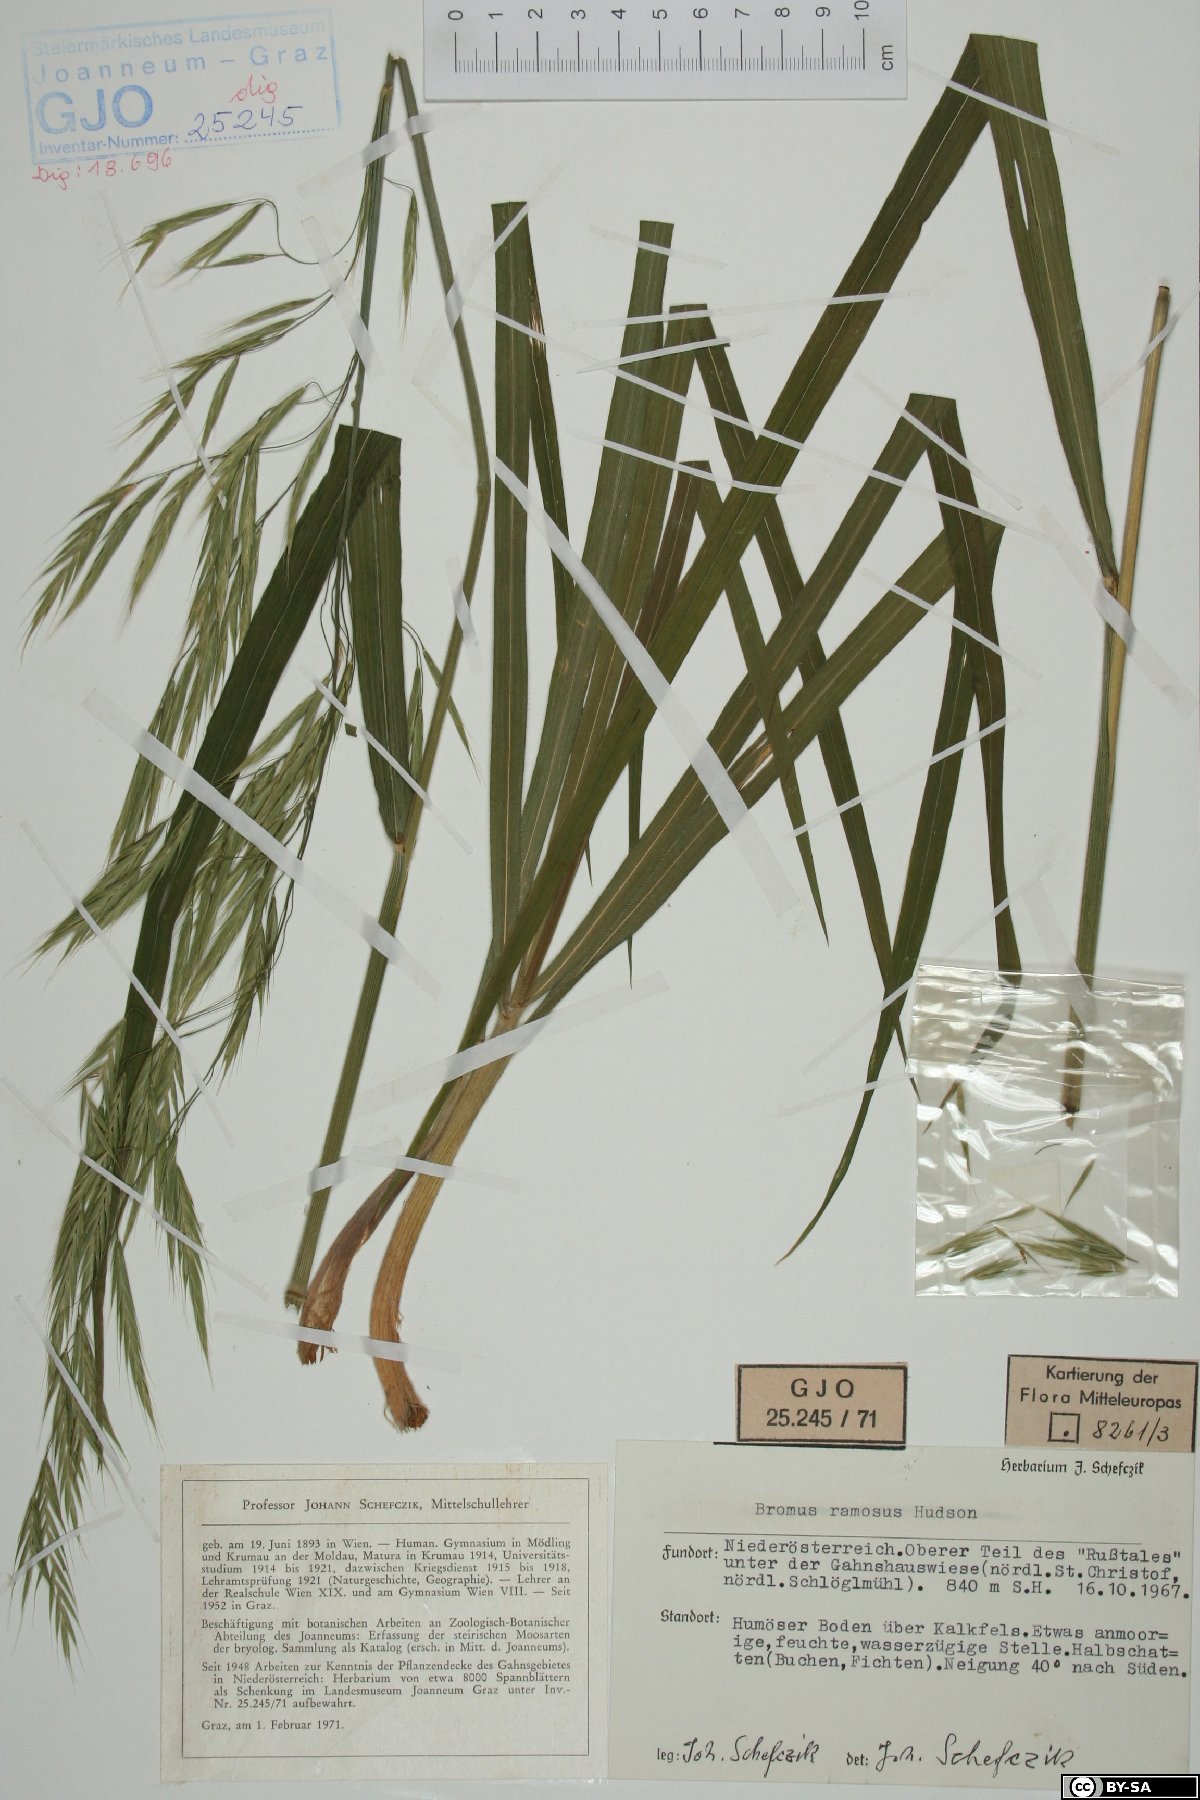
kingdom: Plantae
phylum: Tracheophyta
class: Liliopsida
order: Poales
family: Poaceae
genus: Bromus
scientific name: Bromus ramosus
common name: Hairy brome
